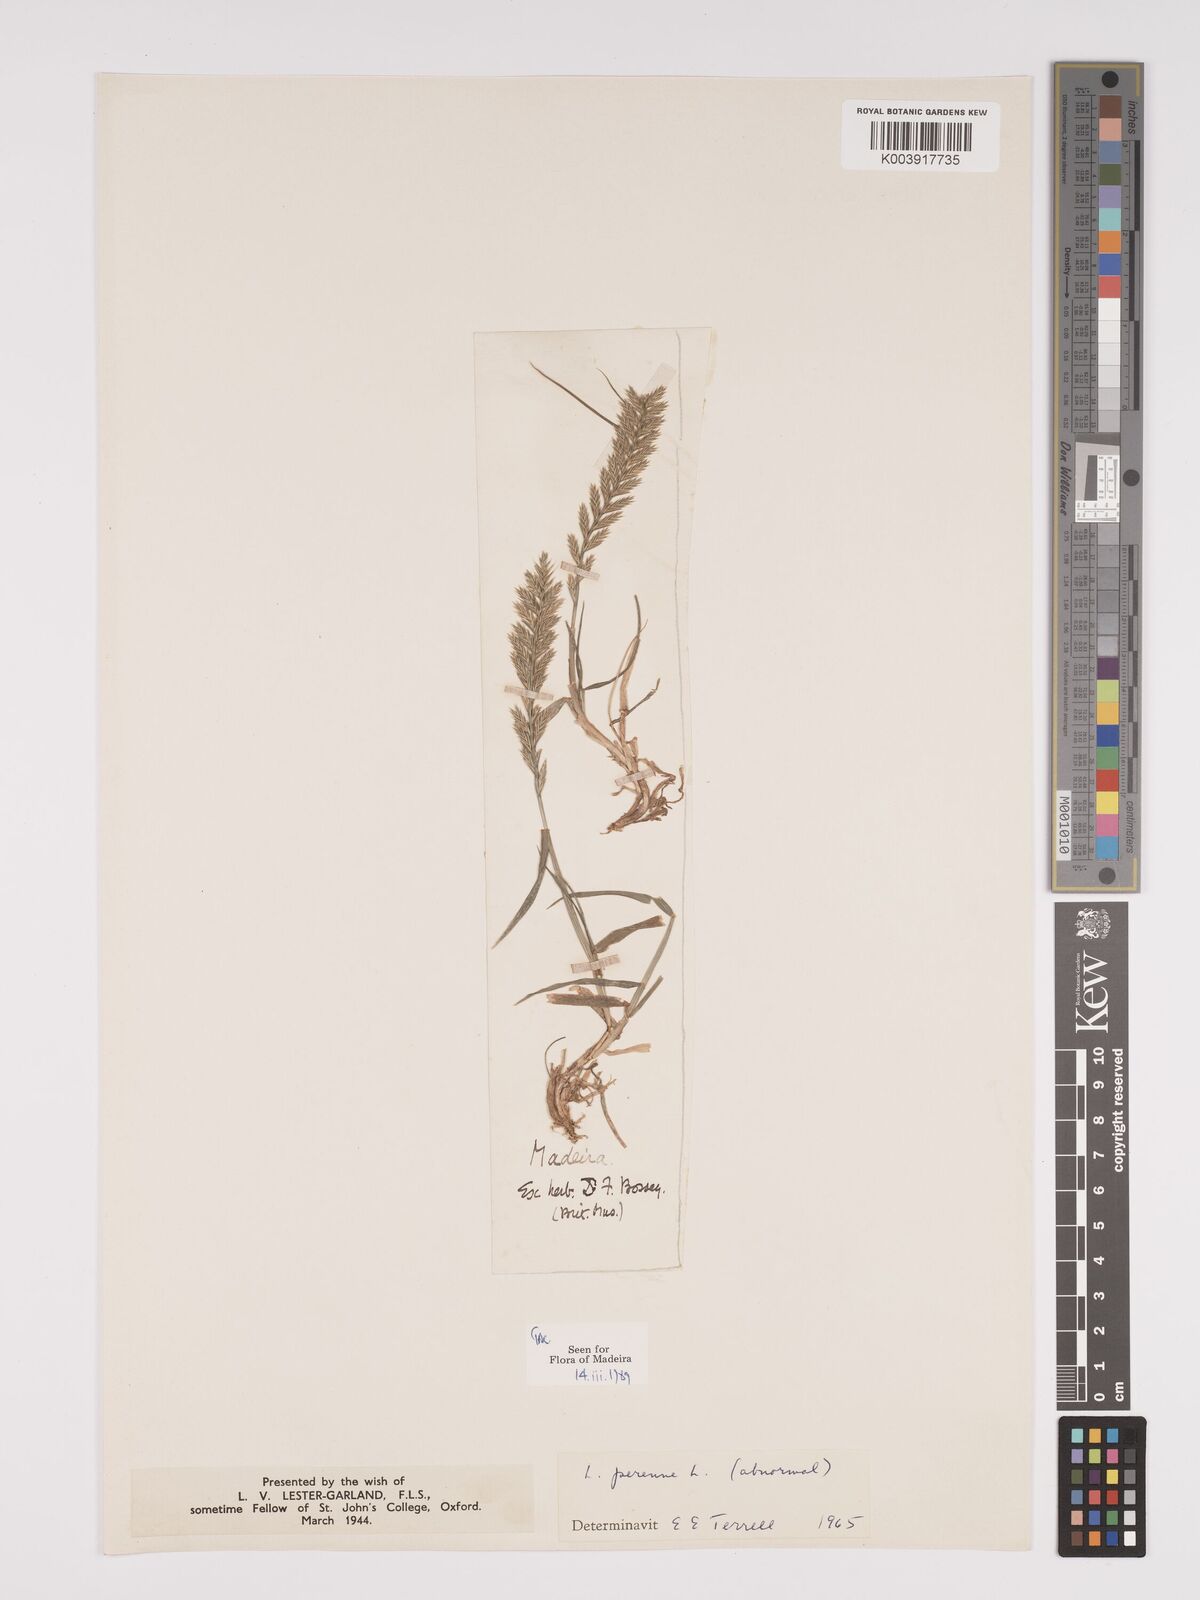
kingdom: Plantae
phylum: Tracheophyta
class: Liliopsida
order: Poales
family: Poaceae
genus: Lolium
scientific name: Lolium perenne
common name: Perennial ryegrass
